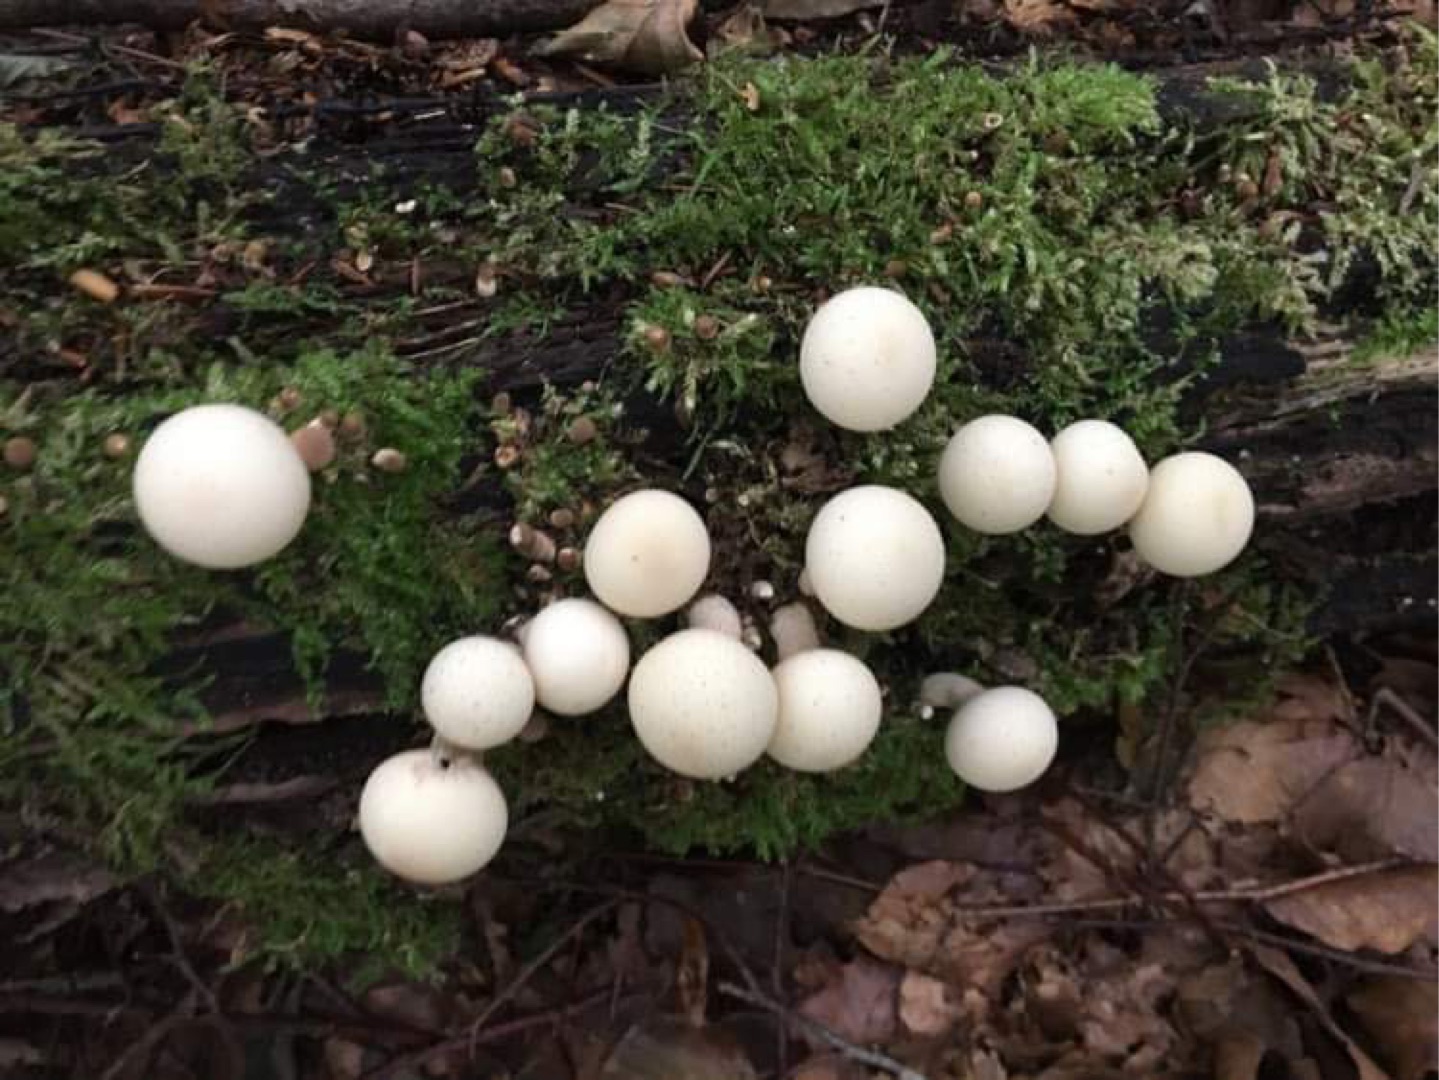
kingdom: Fungi
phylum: Basidiomycota
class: Agaricomycetes
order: Agaricales
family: Lycoperdaceae
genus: Apioperdon
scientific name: Apioperdon pyriforme
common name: Pære-støvbold
